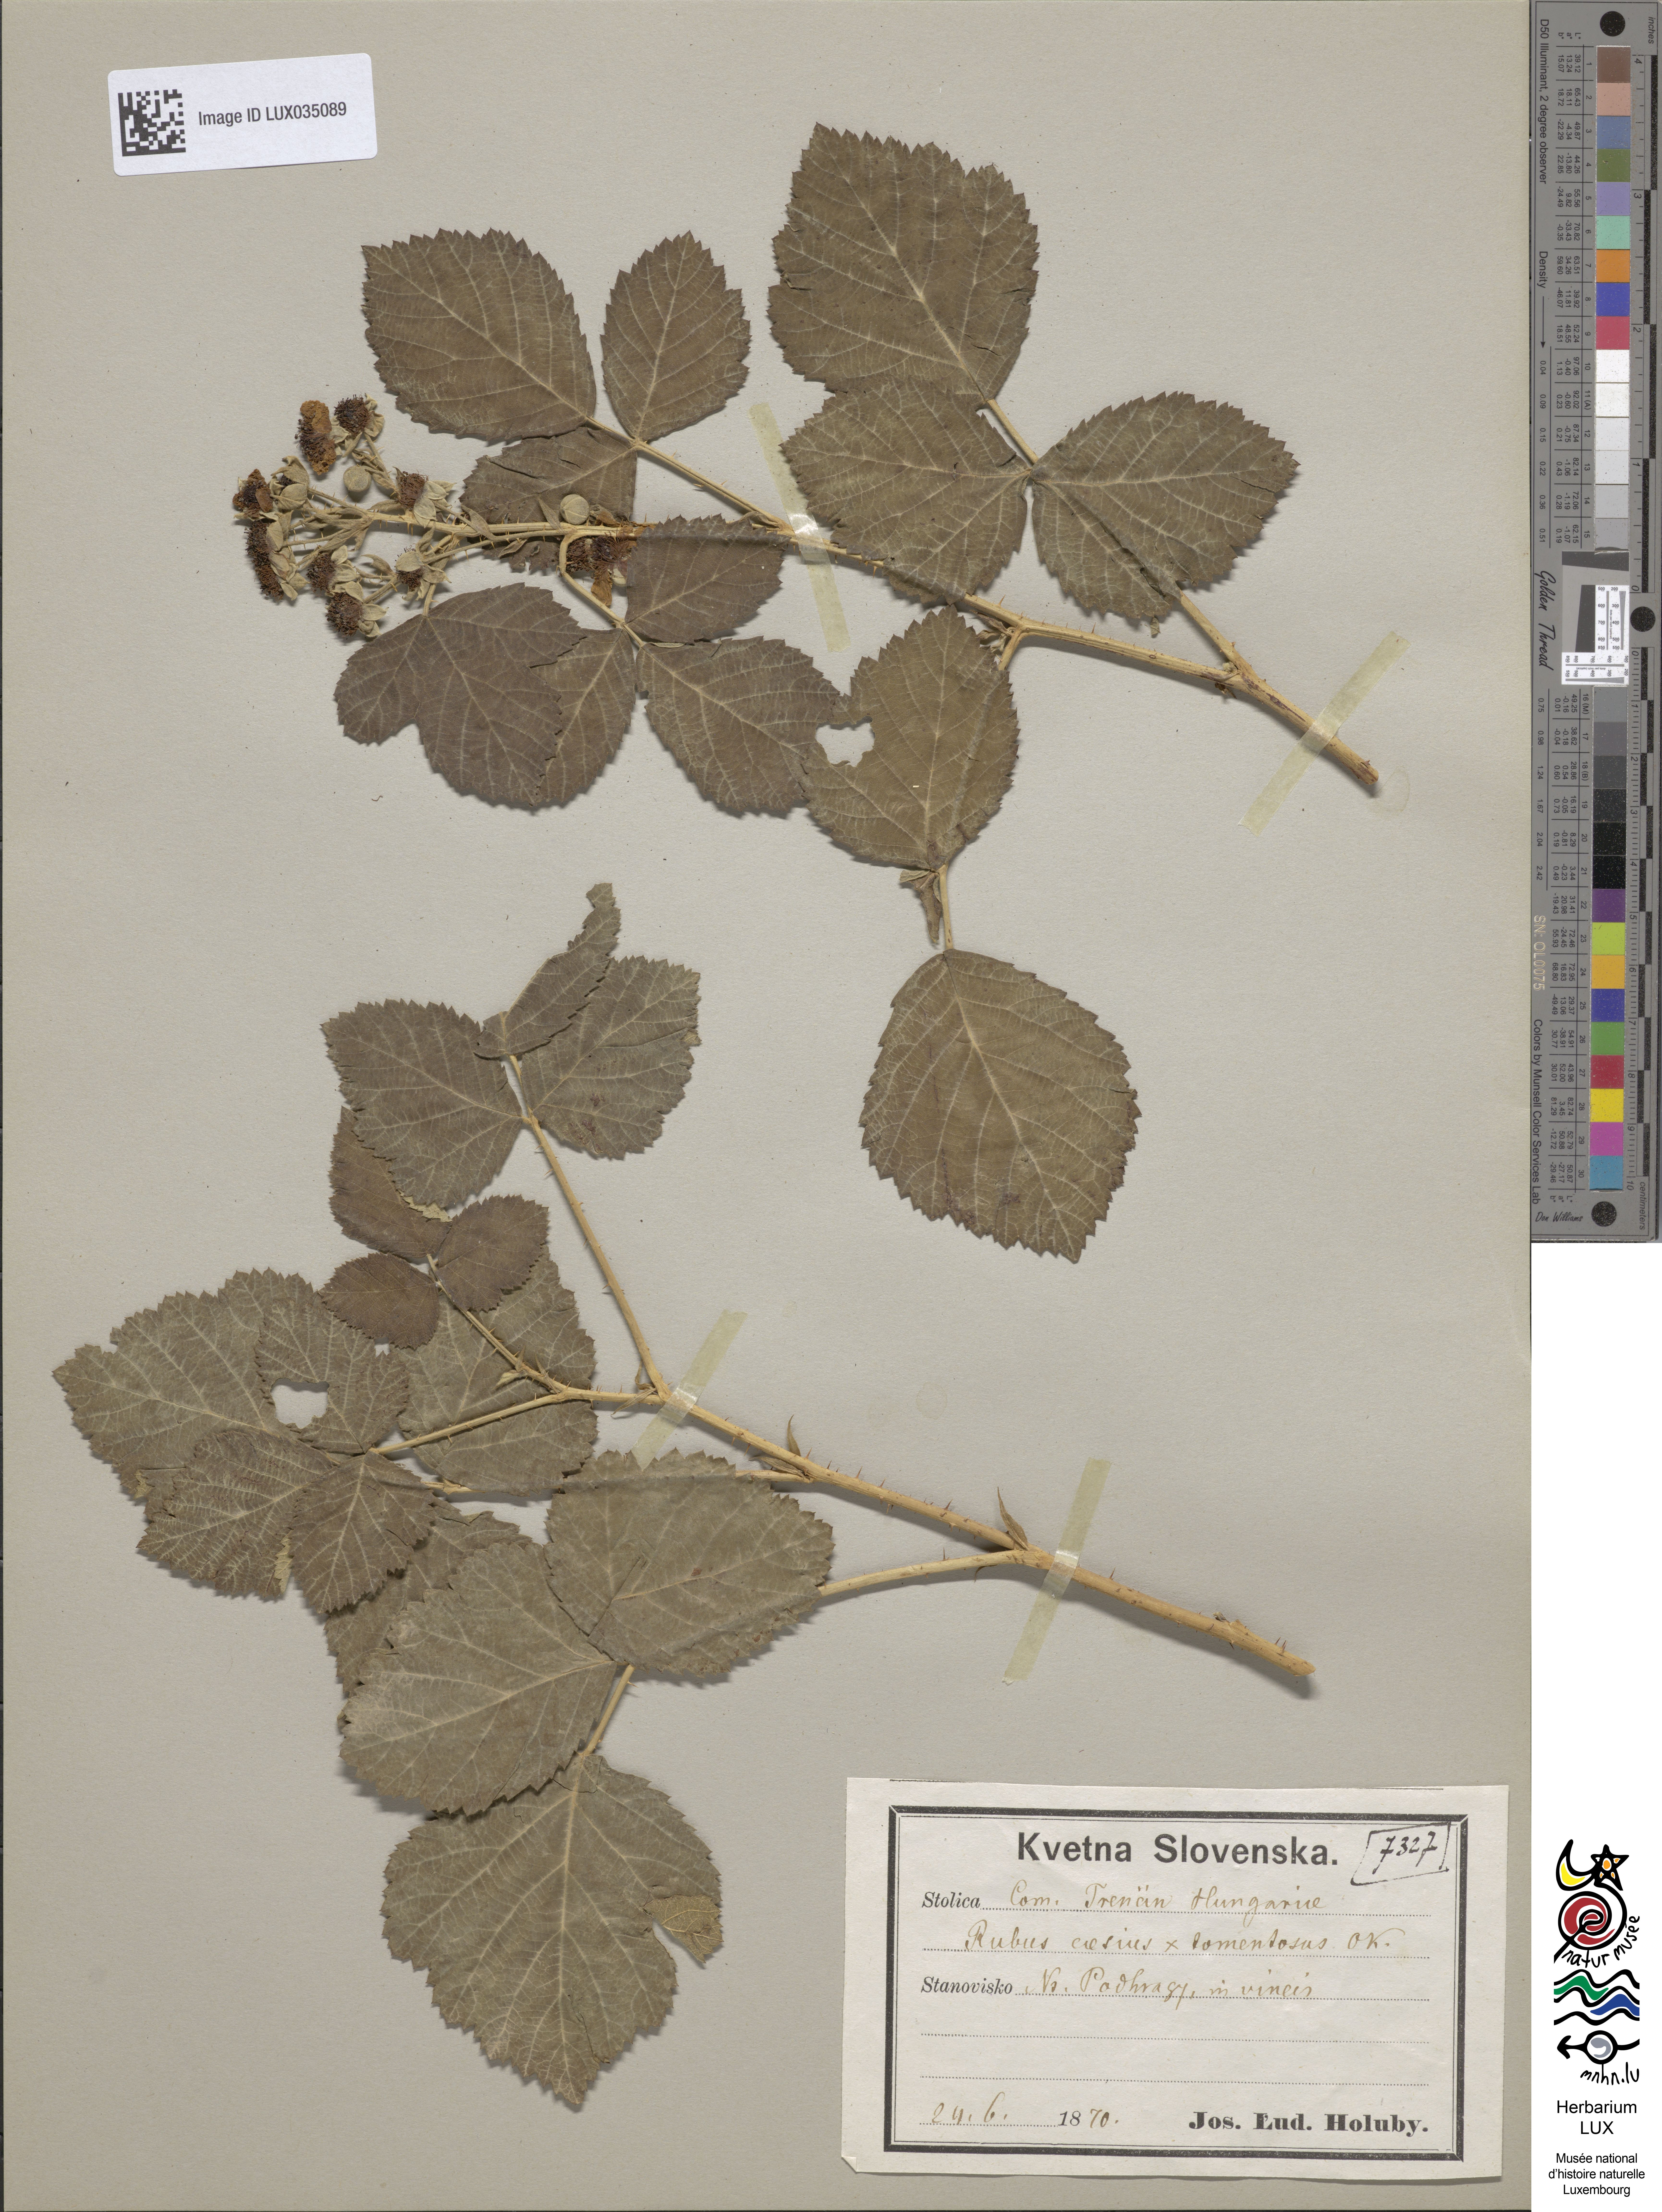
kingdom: Plantae
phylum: Tracheophyta
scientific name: Tracheophyta
